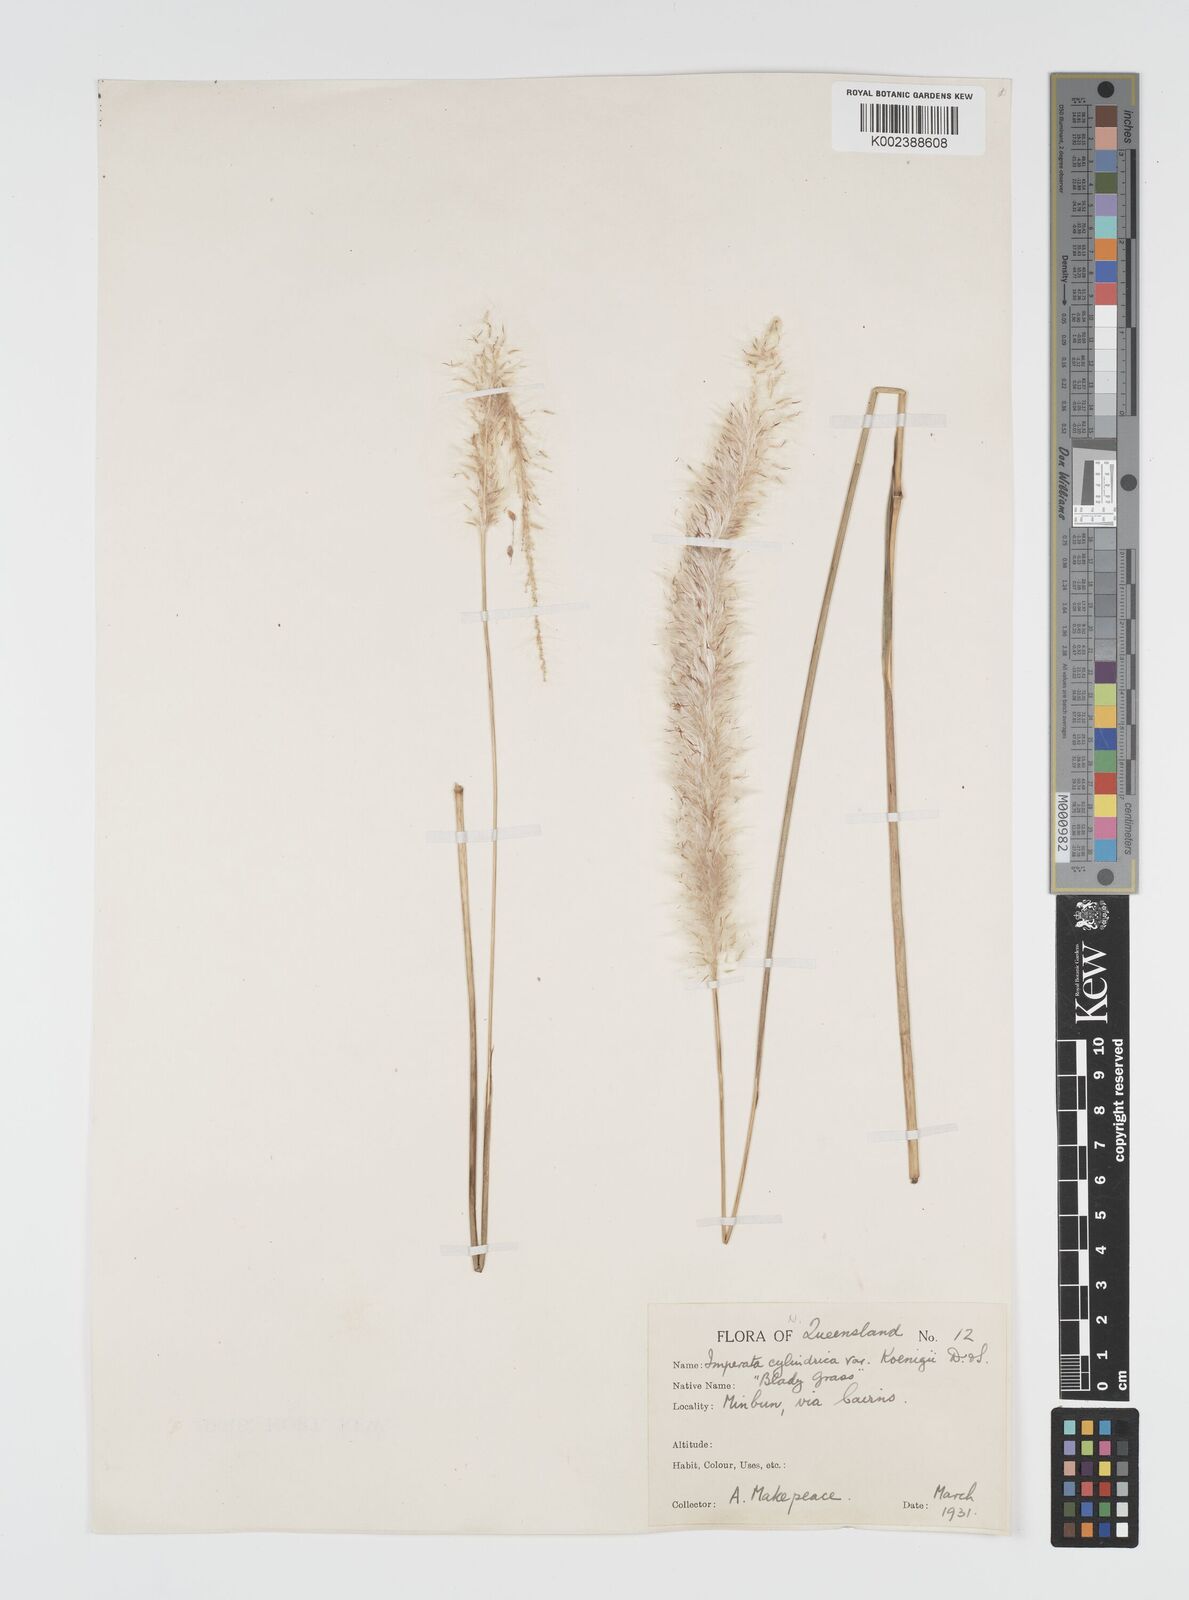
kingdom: Plantae
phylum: Tracheophyta
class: Liliopsida
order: Poales
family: Poaceae
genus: Imperata
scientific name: Imperata cylindrica
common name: Cogongrass
